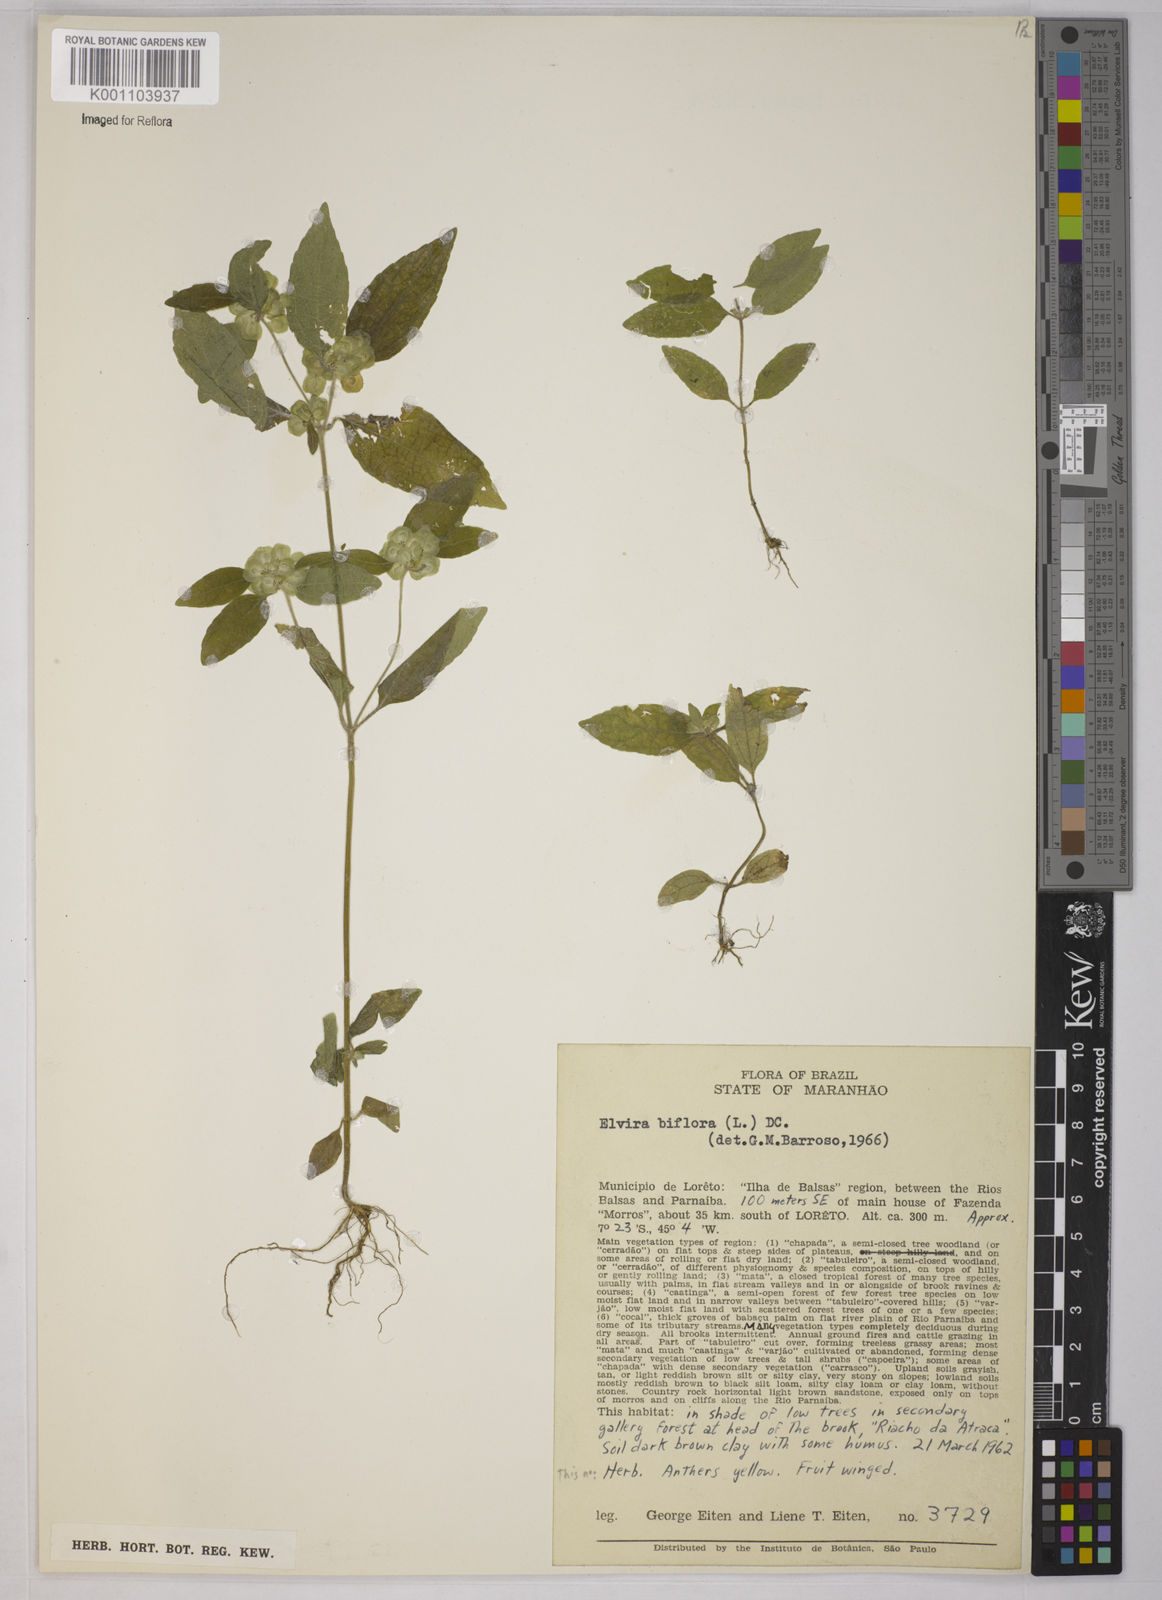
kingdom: Plantae
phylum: Tracheophyta
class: Magnoliopsida
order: Asterales
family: Asteraceae
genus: Delilia
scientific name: Delilia biflora
